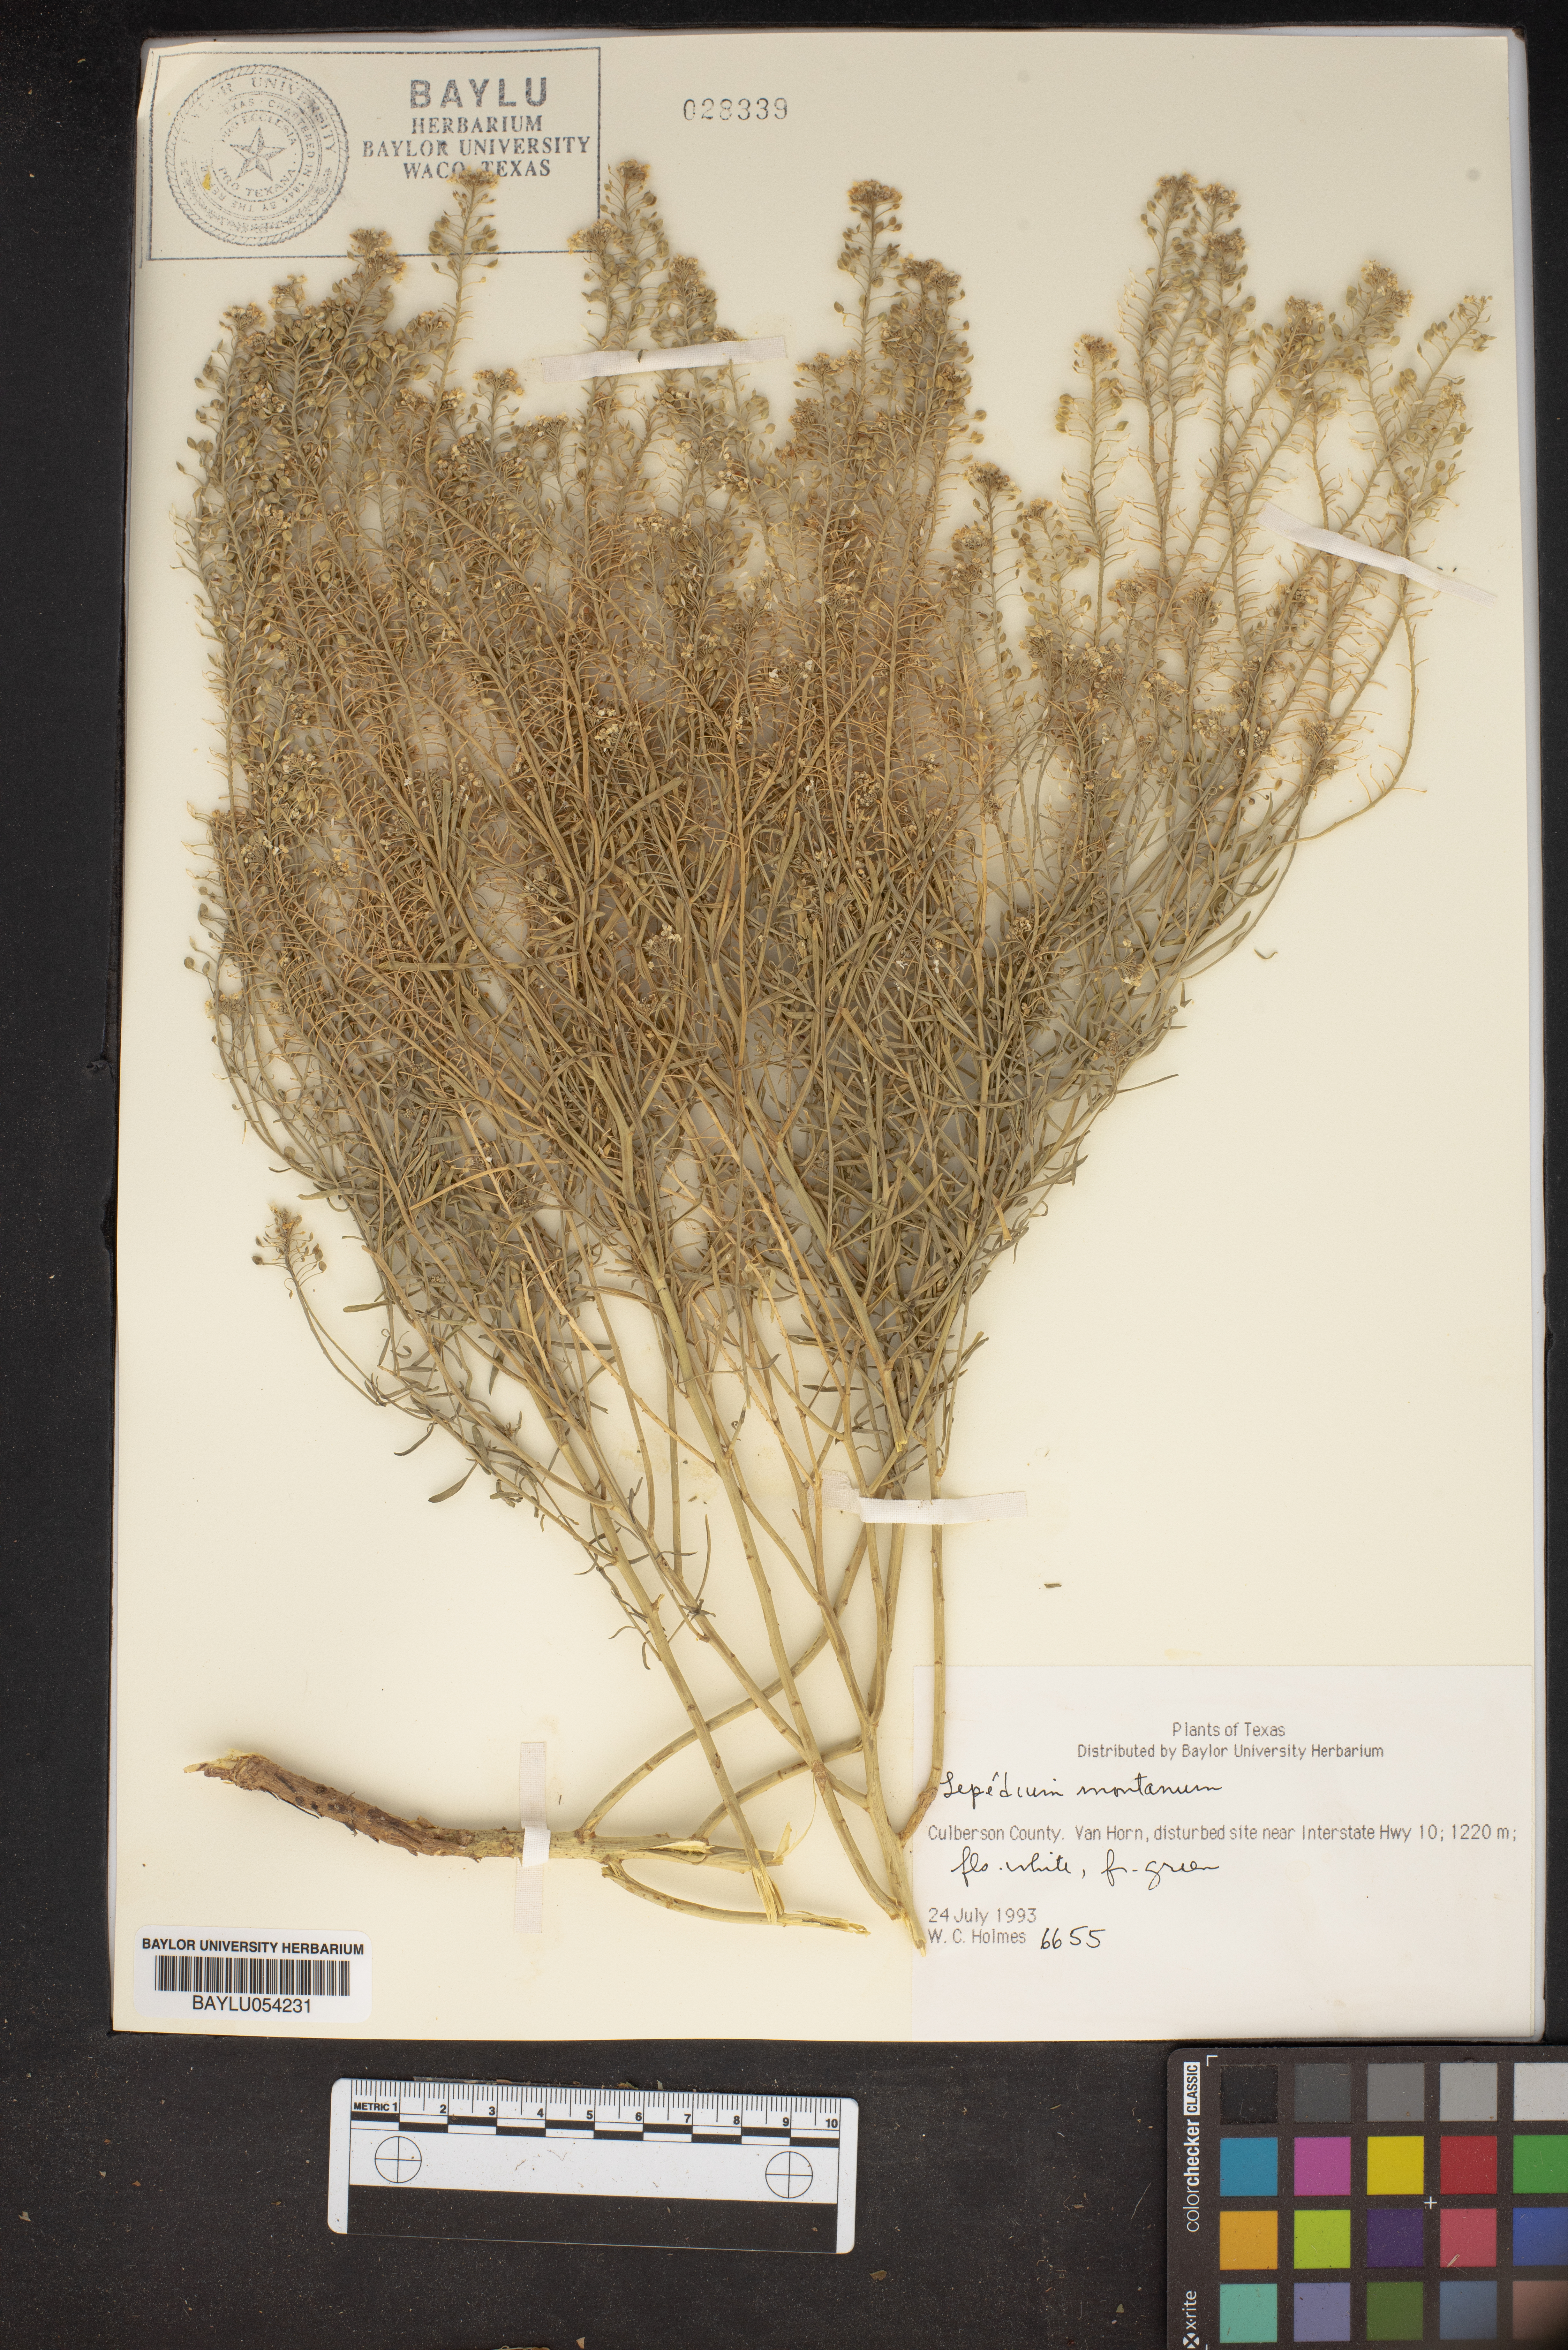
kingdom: Plantae
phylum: Tracheophyta
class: Magnoliopsida
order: Brassicales
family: Brassicaceae
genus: Lepidium
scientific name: Lepidium montanum
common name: Mountain pepperplant
